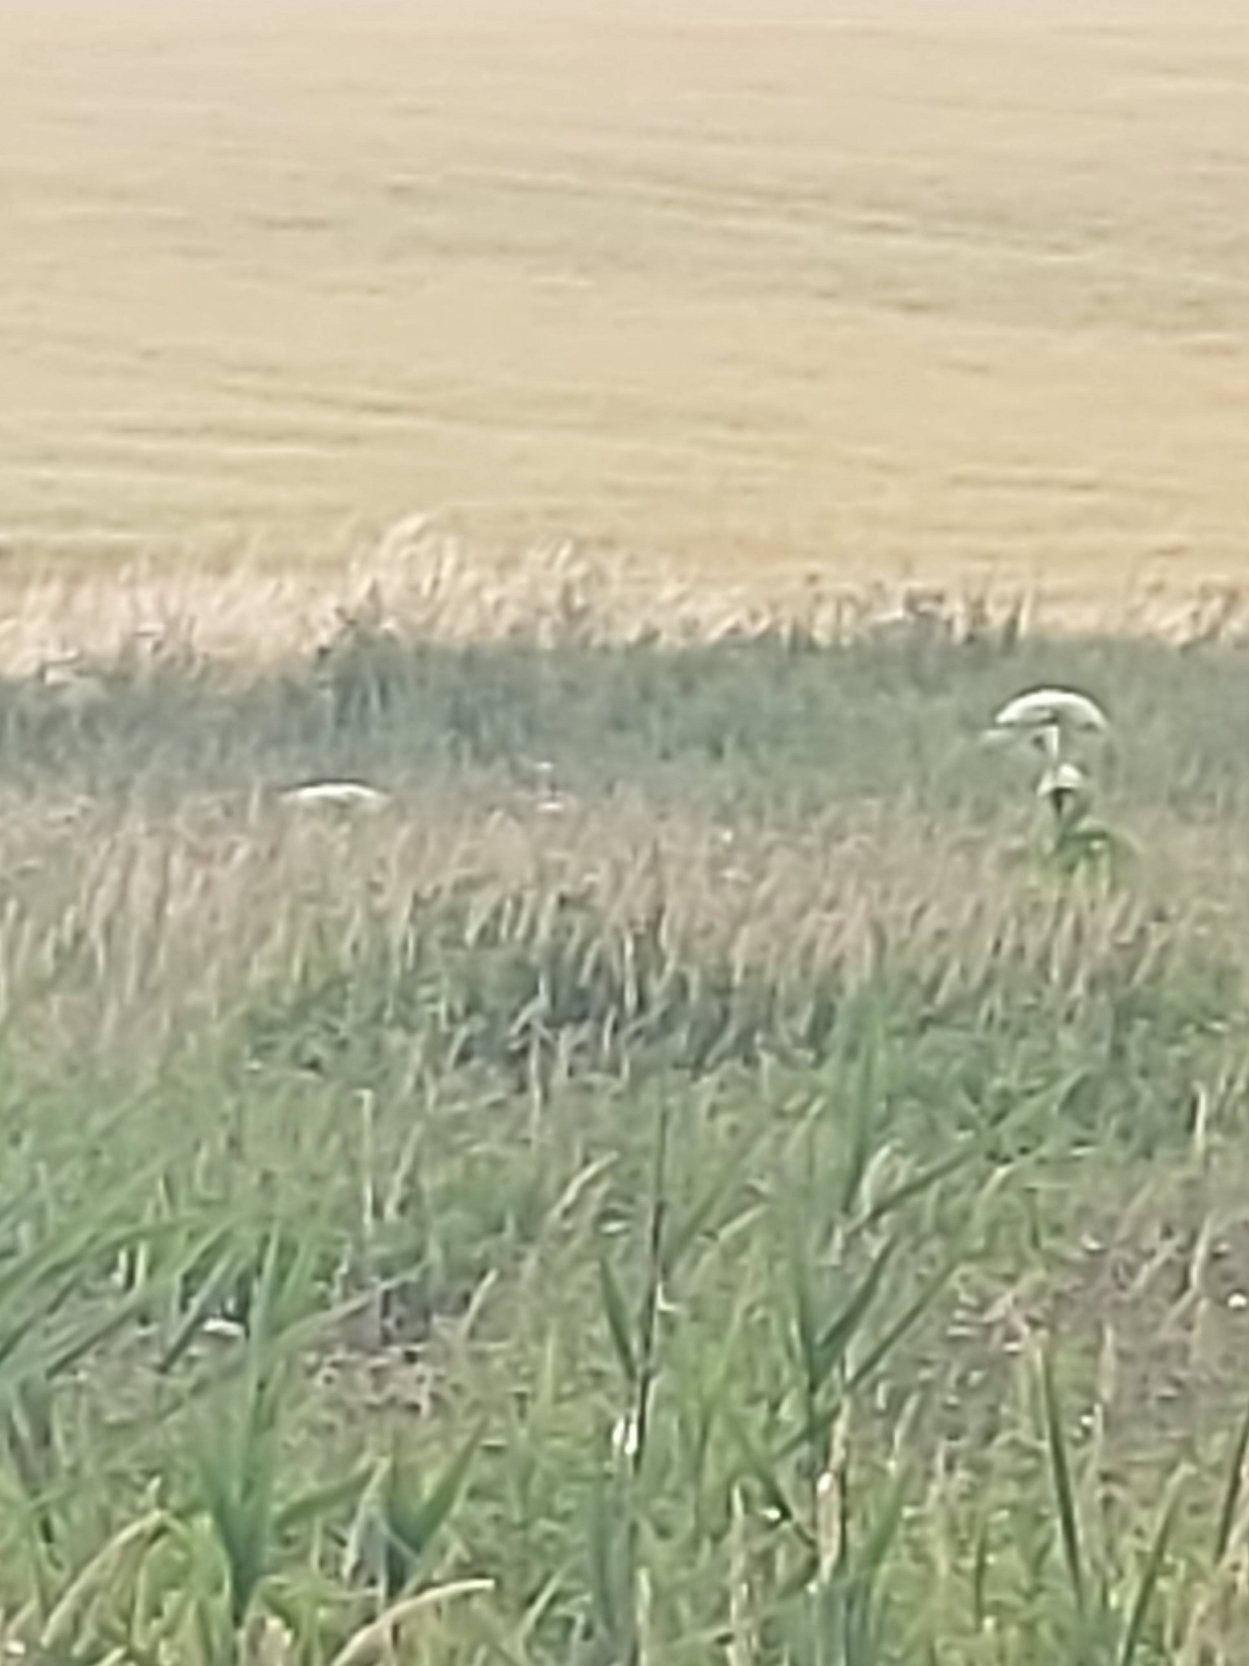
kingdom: Plantae
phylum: Tracheophyta
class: Magnoliopsida
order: Apiales
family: Apiaceae
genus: Heracleum
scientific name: Heracleum mantegazzianum
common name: Kæmpe-bjørneklo
